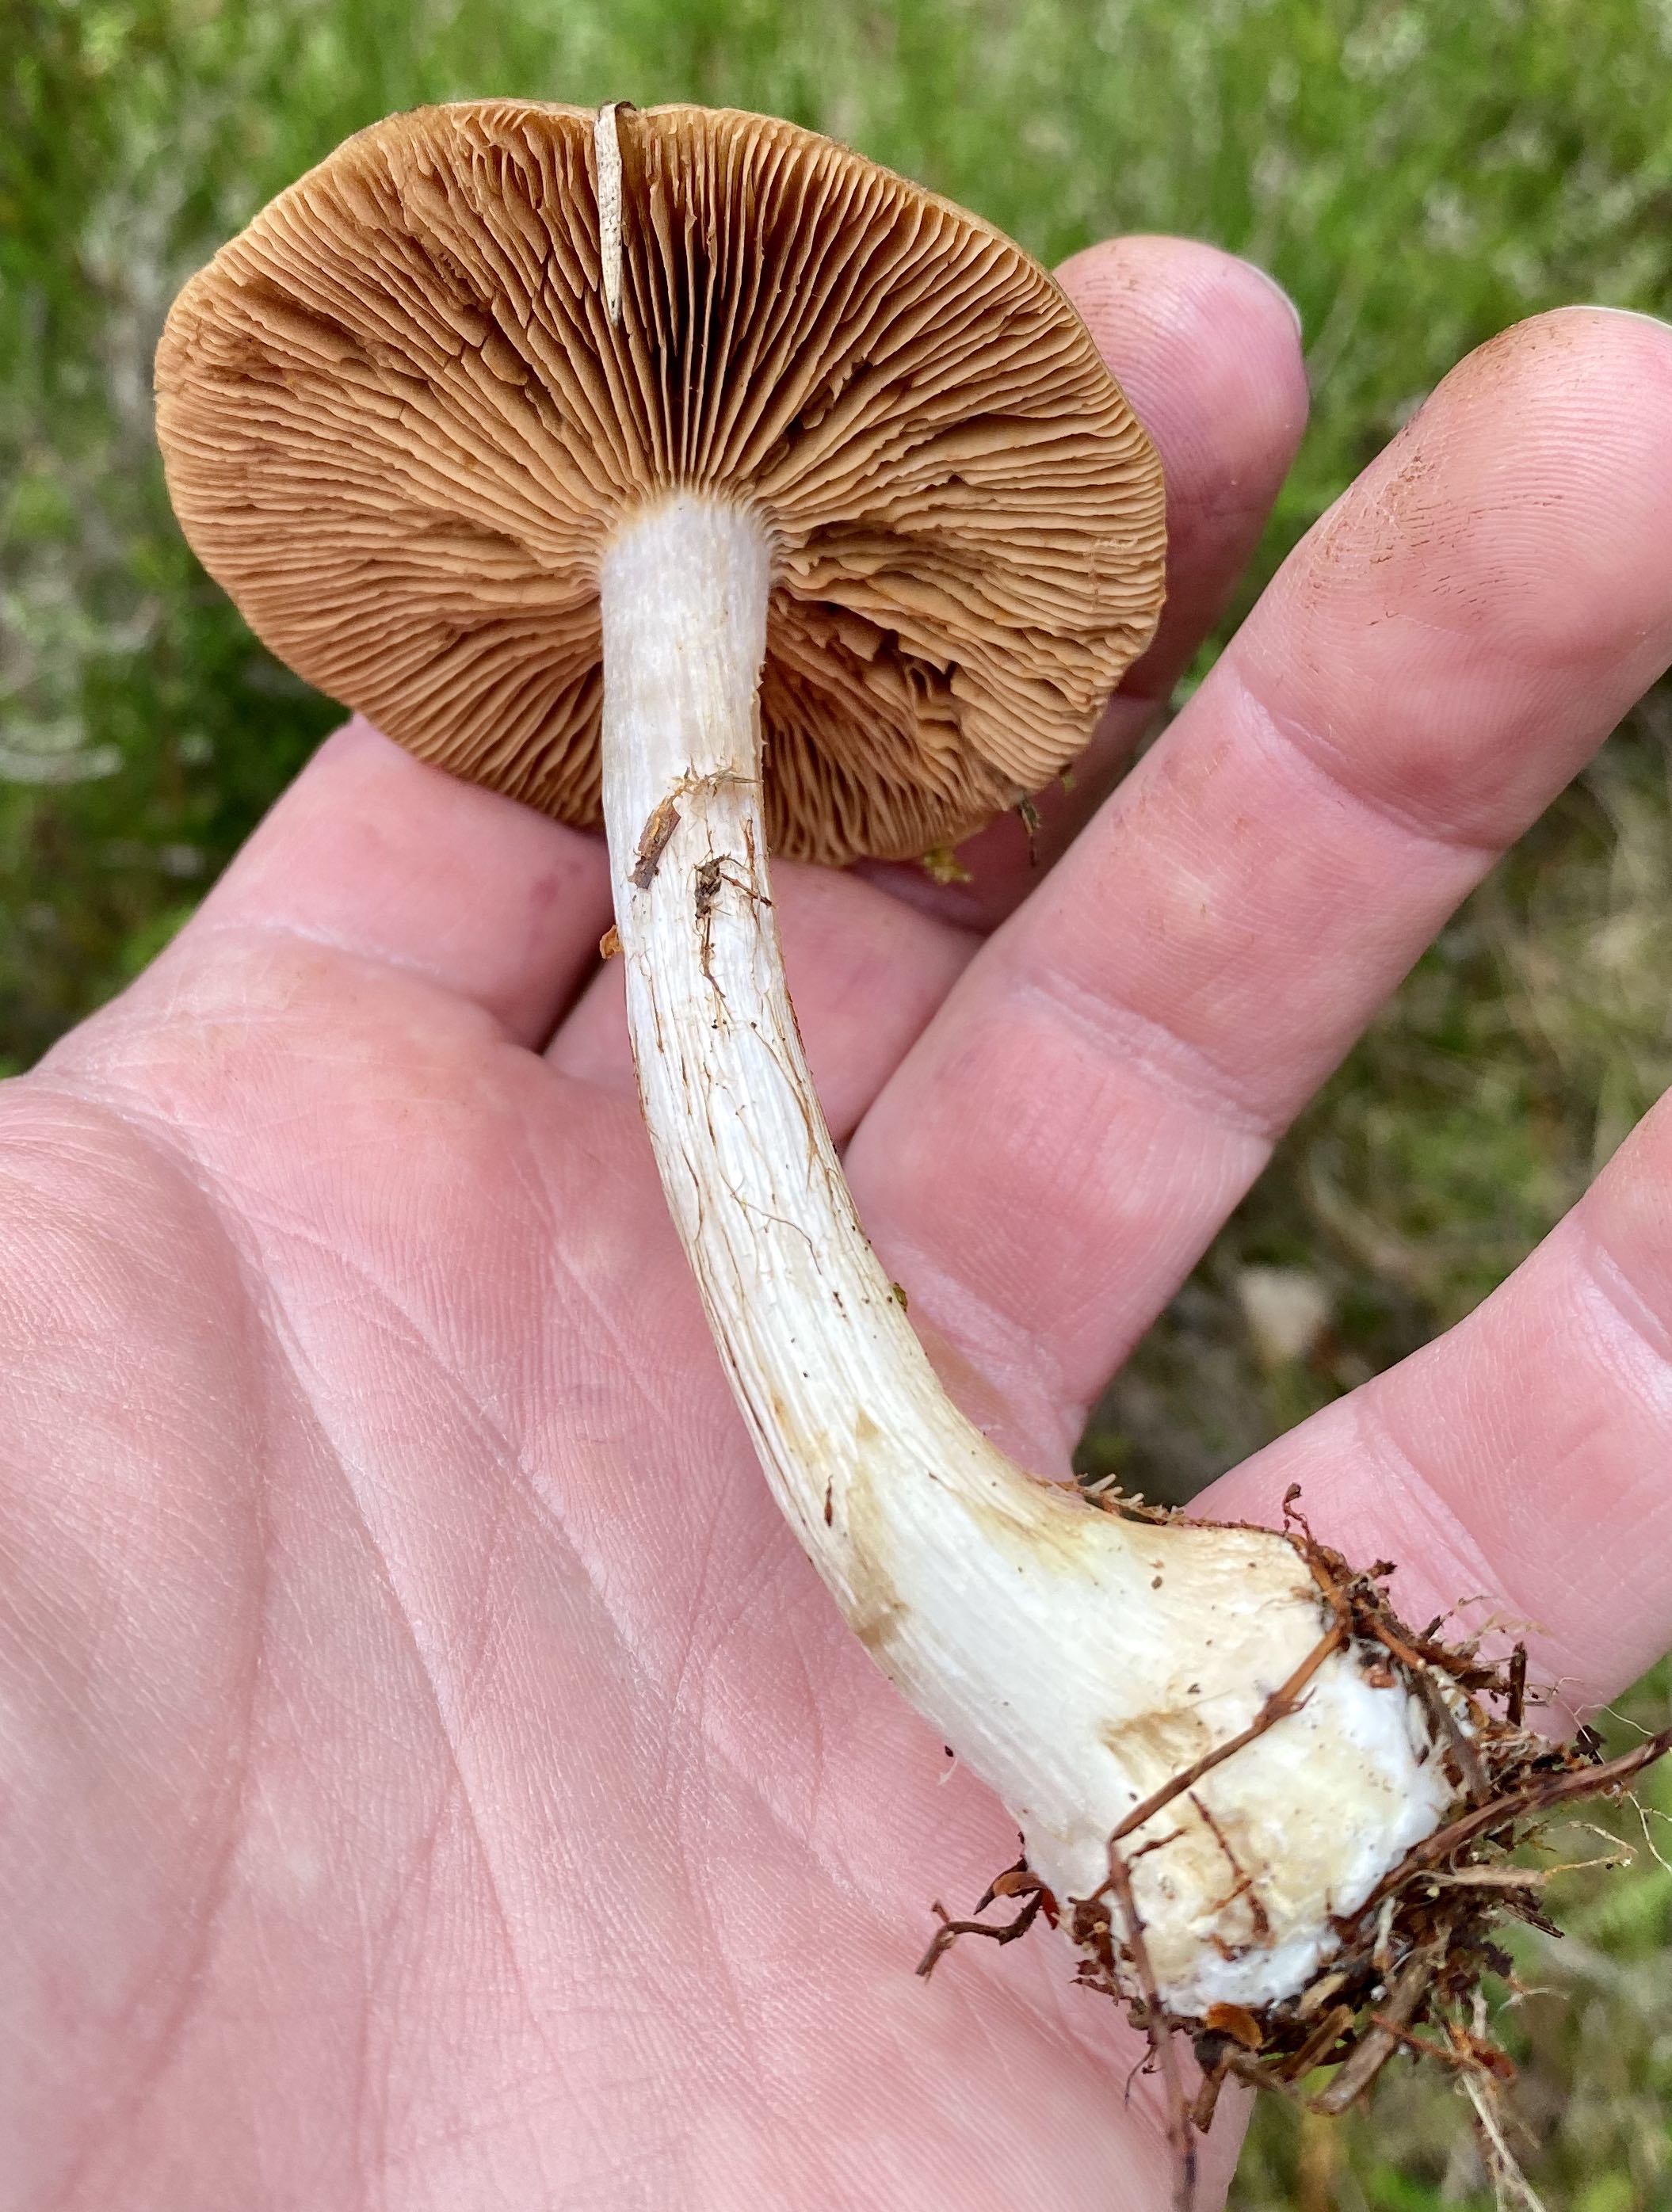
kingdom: Fungi
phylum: Basidiomycota
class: Agaricomycetes
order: Agaricales
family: Cortinariaceae
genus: Cortinarius
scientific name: Cortinarius
